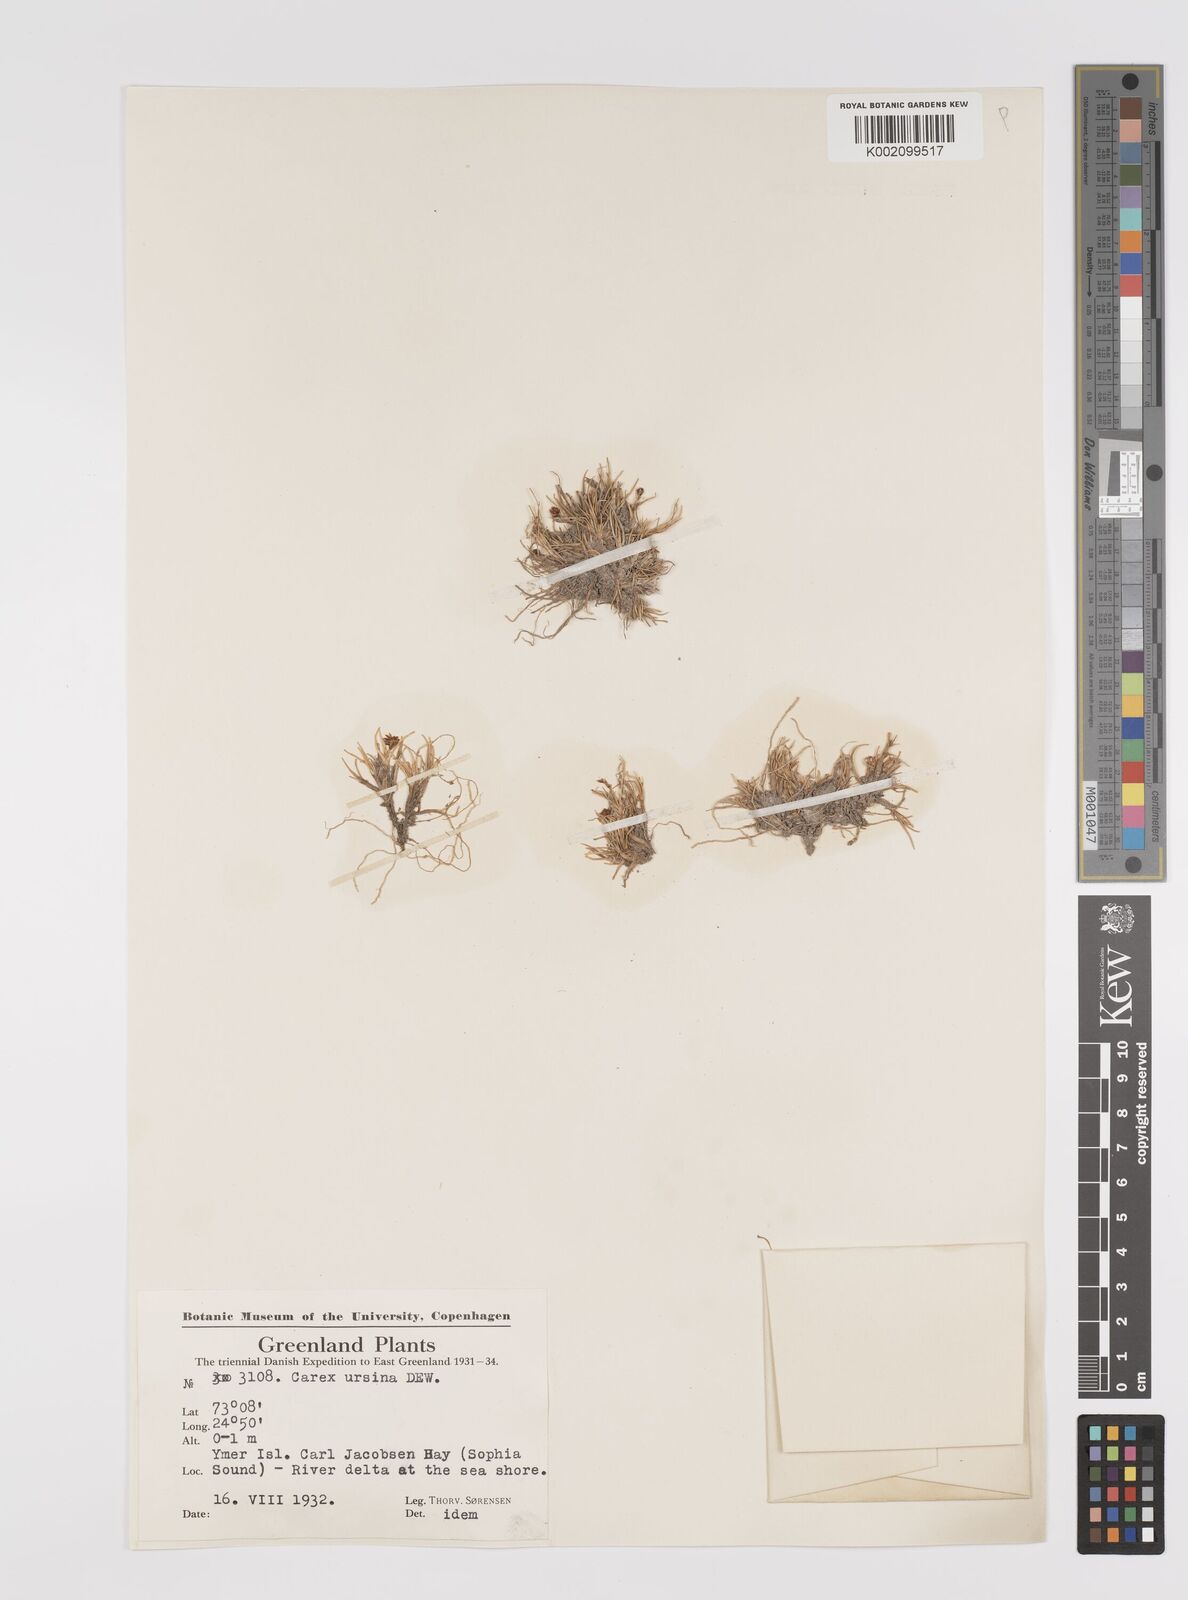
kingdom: Plantae
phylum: Tracheophyta
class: Liliopsida
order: Poales
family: Cyperaceae
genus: Carex
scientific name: Carex ursina
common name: Bear sedge
